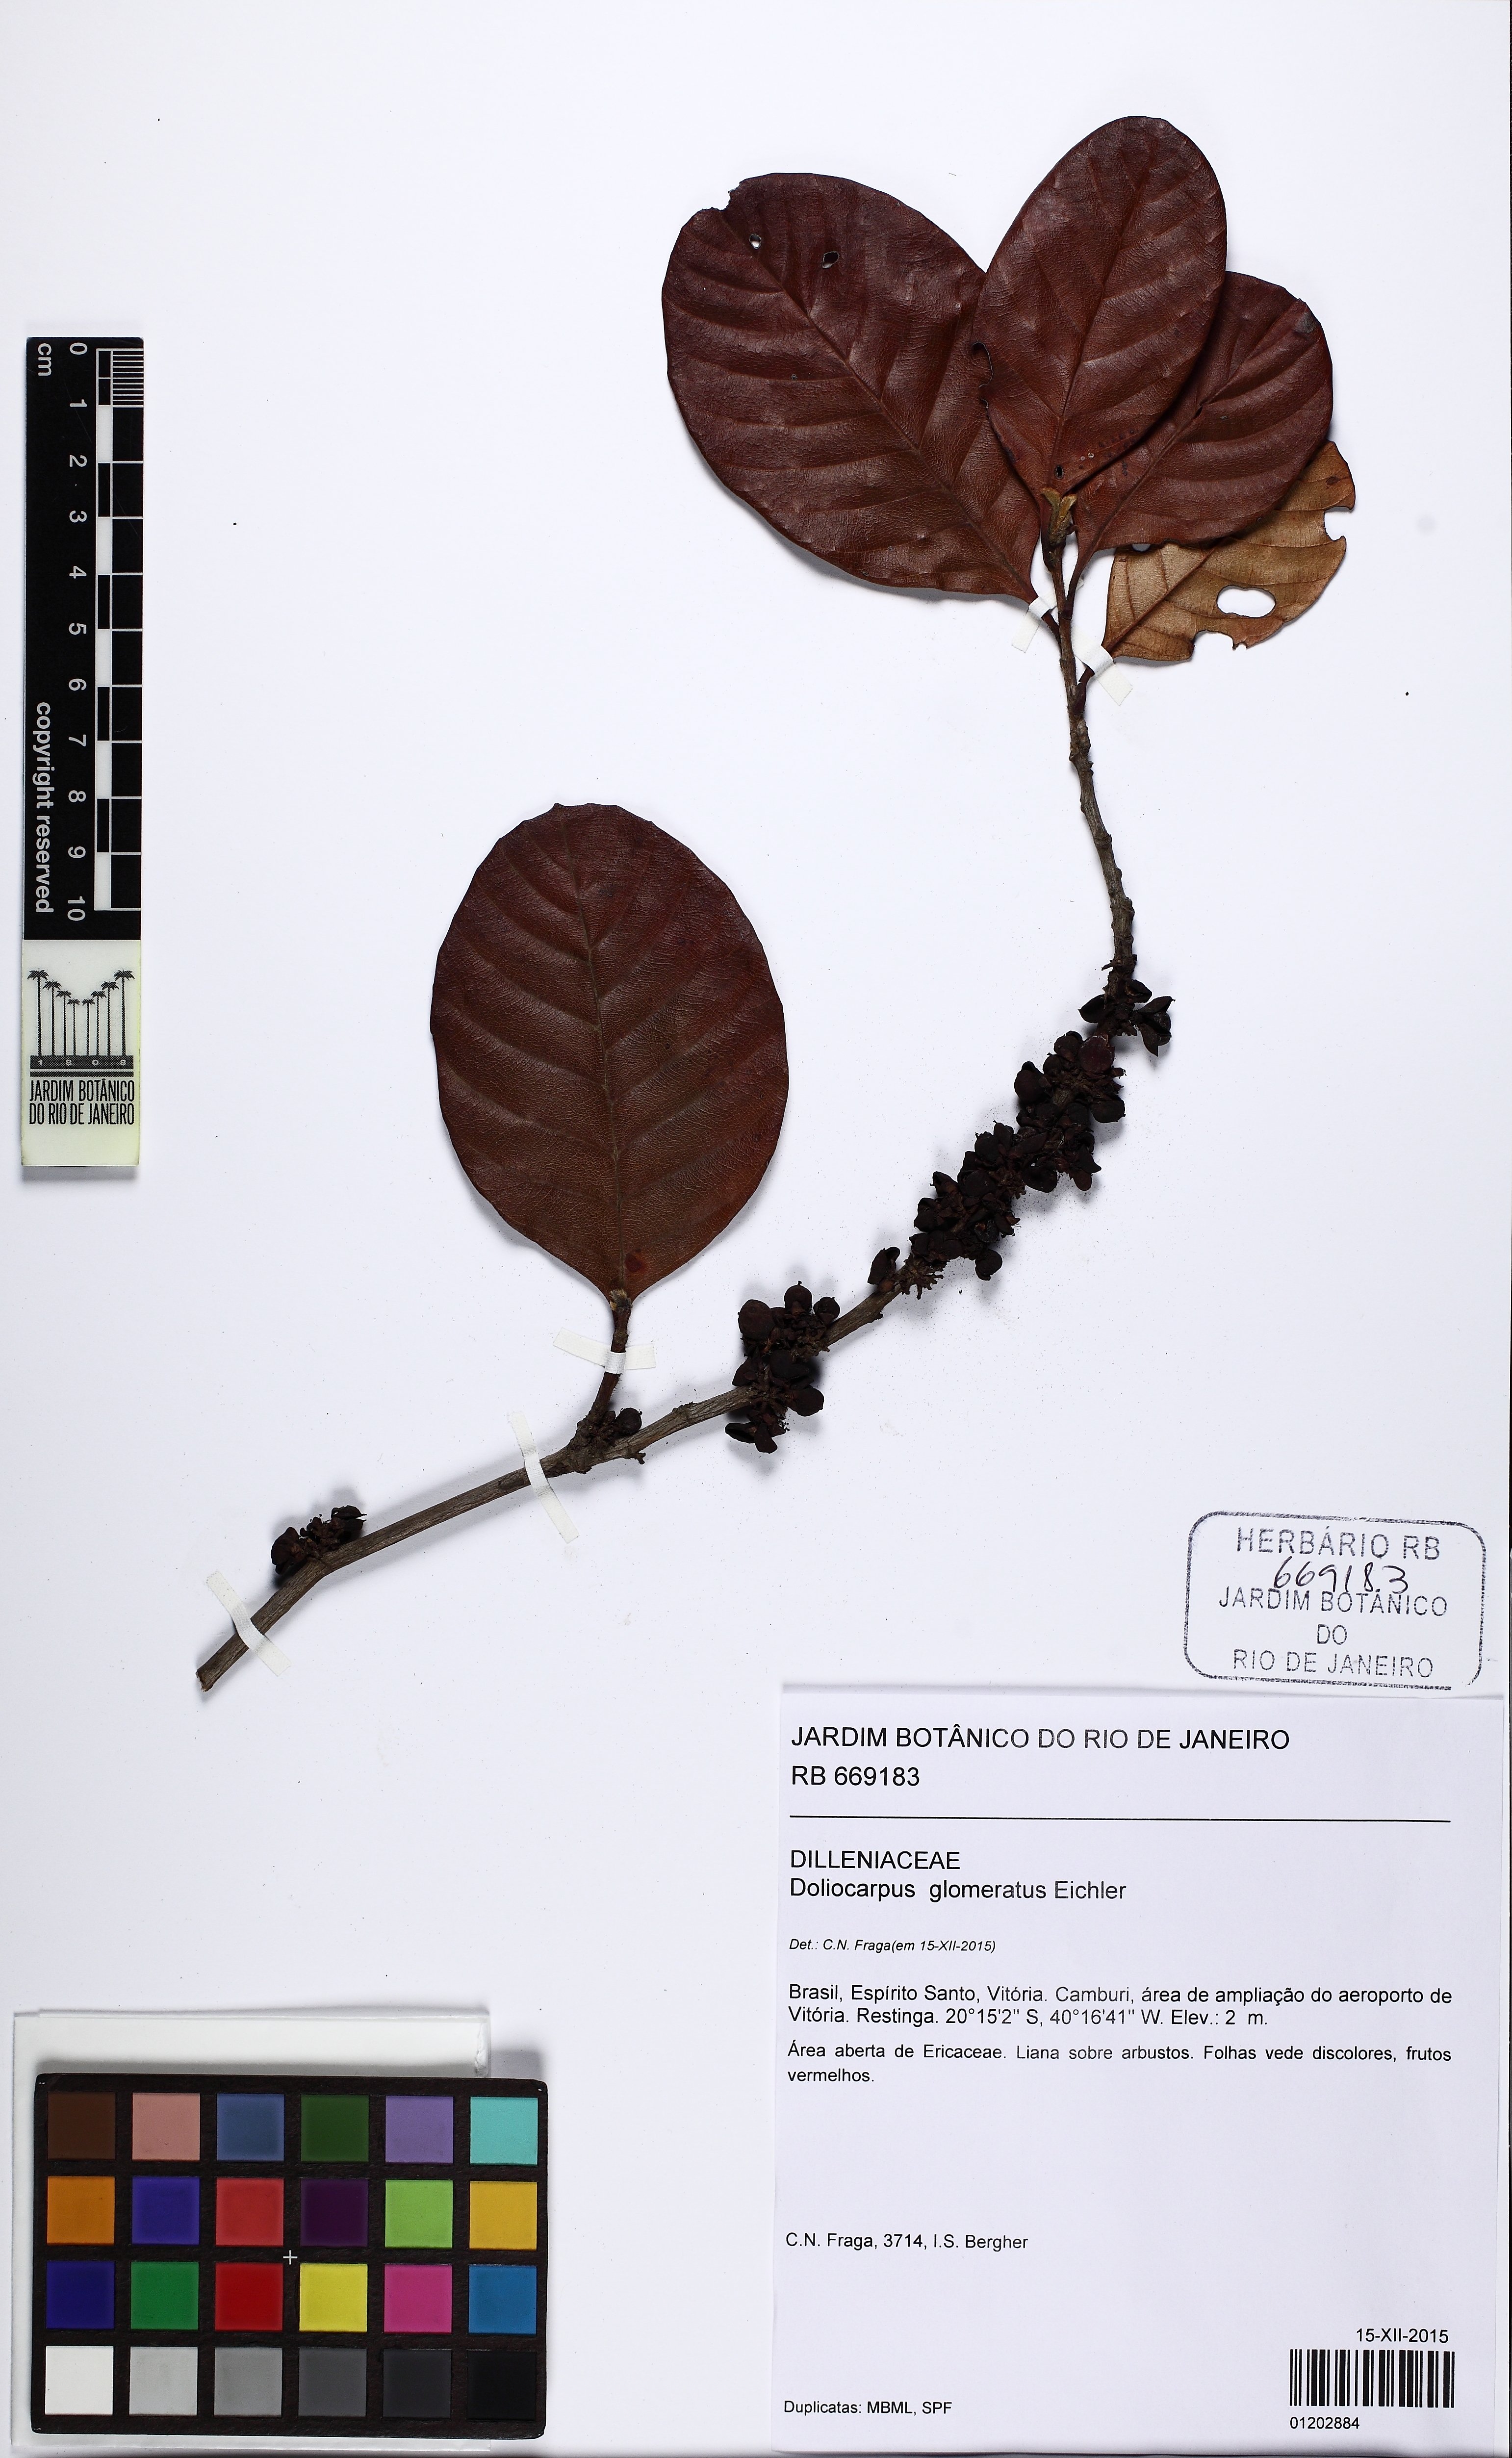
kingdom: Plantae
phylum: Tracheophyta
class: Magnoliopsida
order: Dilleniales
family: Dilleniaceae
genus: Doliocarpus
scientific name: Doliocarpus glomeratus
